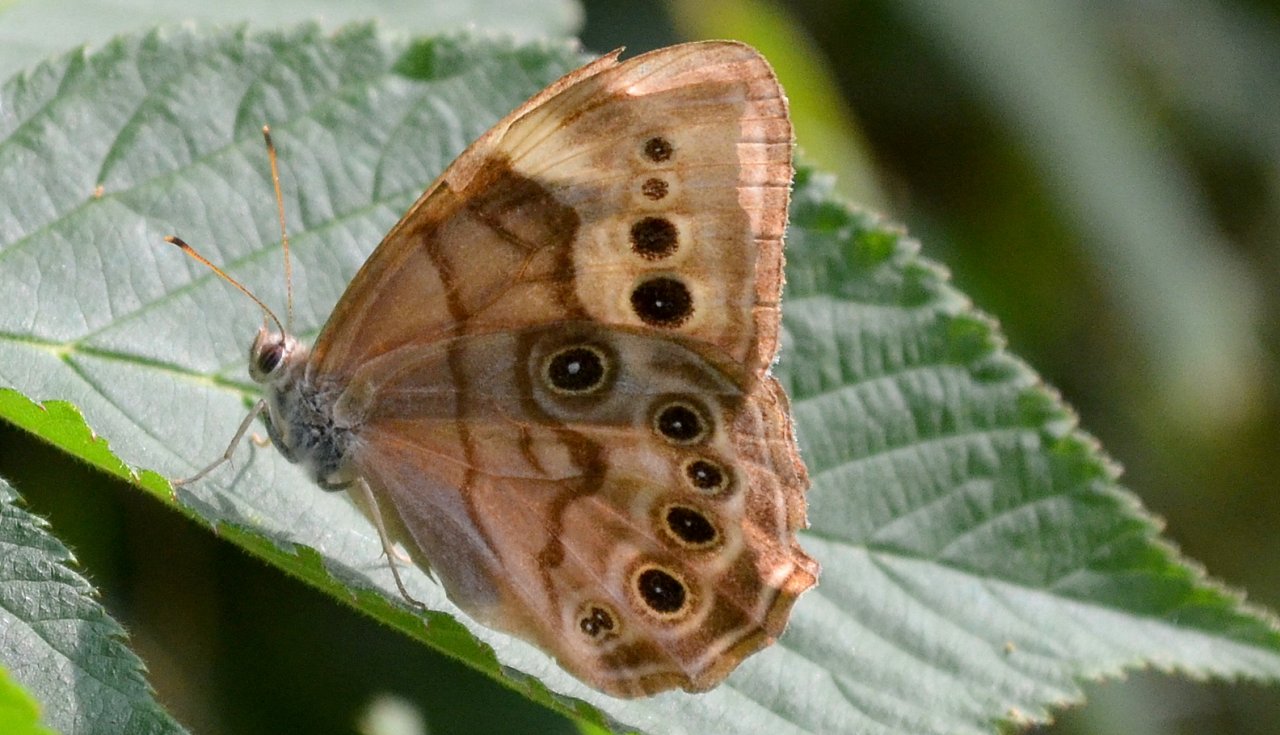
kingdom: Animalia
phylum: Arthropoda
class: Insecta
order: Lepidoptera
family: Nymphalidae
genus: Lethe
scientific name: Lethe anthedon
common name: Northern Pearly-Eye
